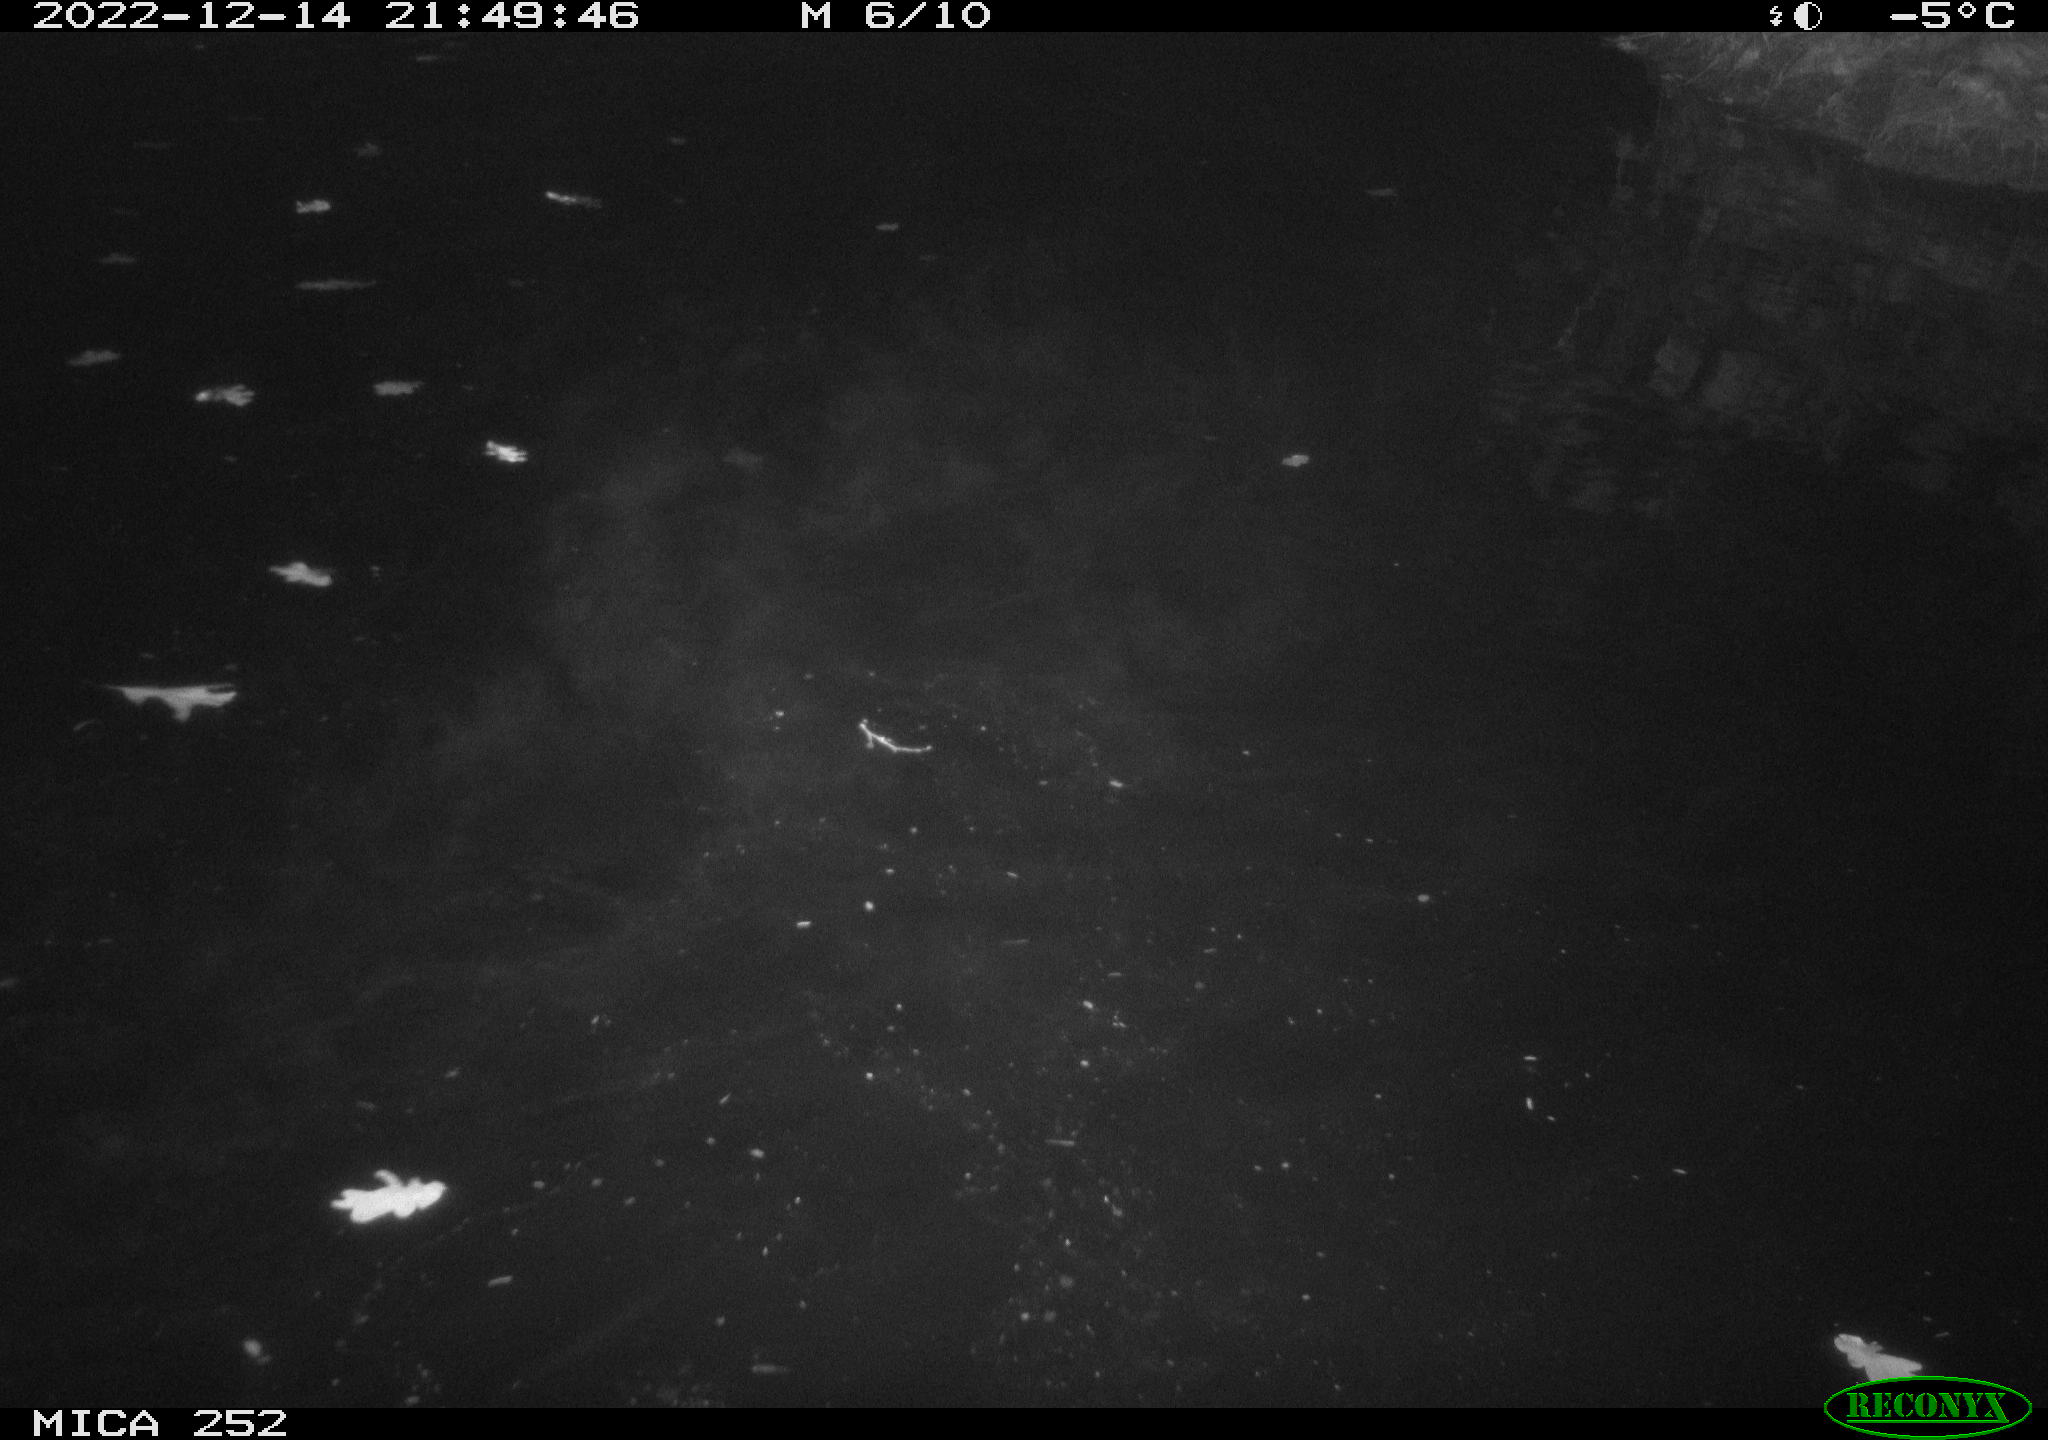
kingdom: Animalia
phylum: Chordata
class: Mammalia
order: Rodentia
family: Castoridae
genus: Castor
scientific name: Castor fiber
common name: Eurasian beaver
